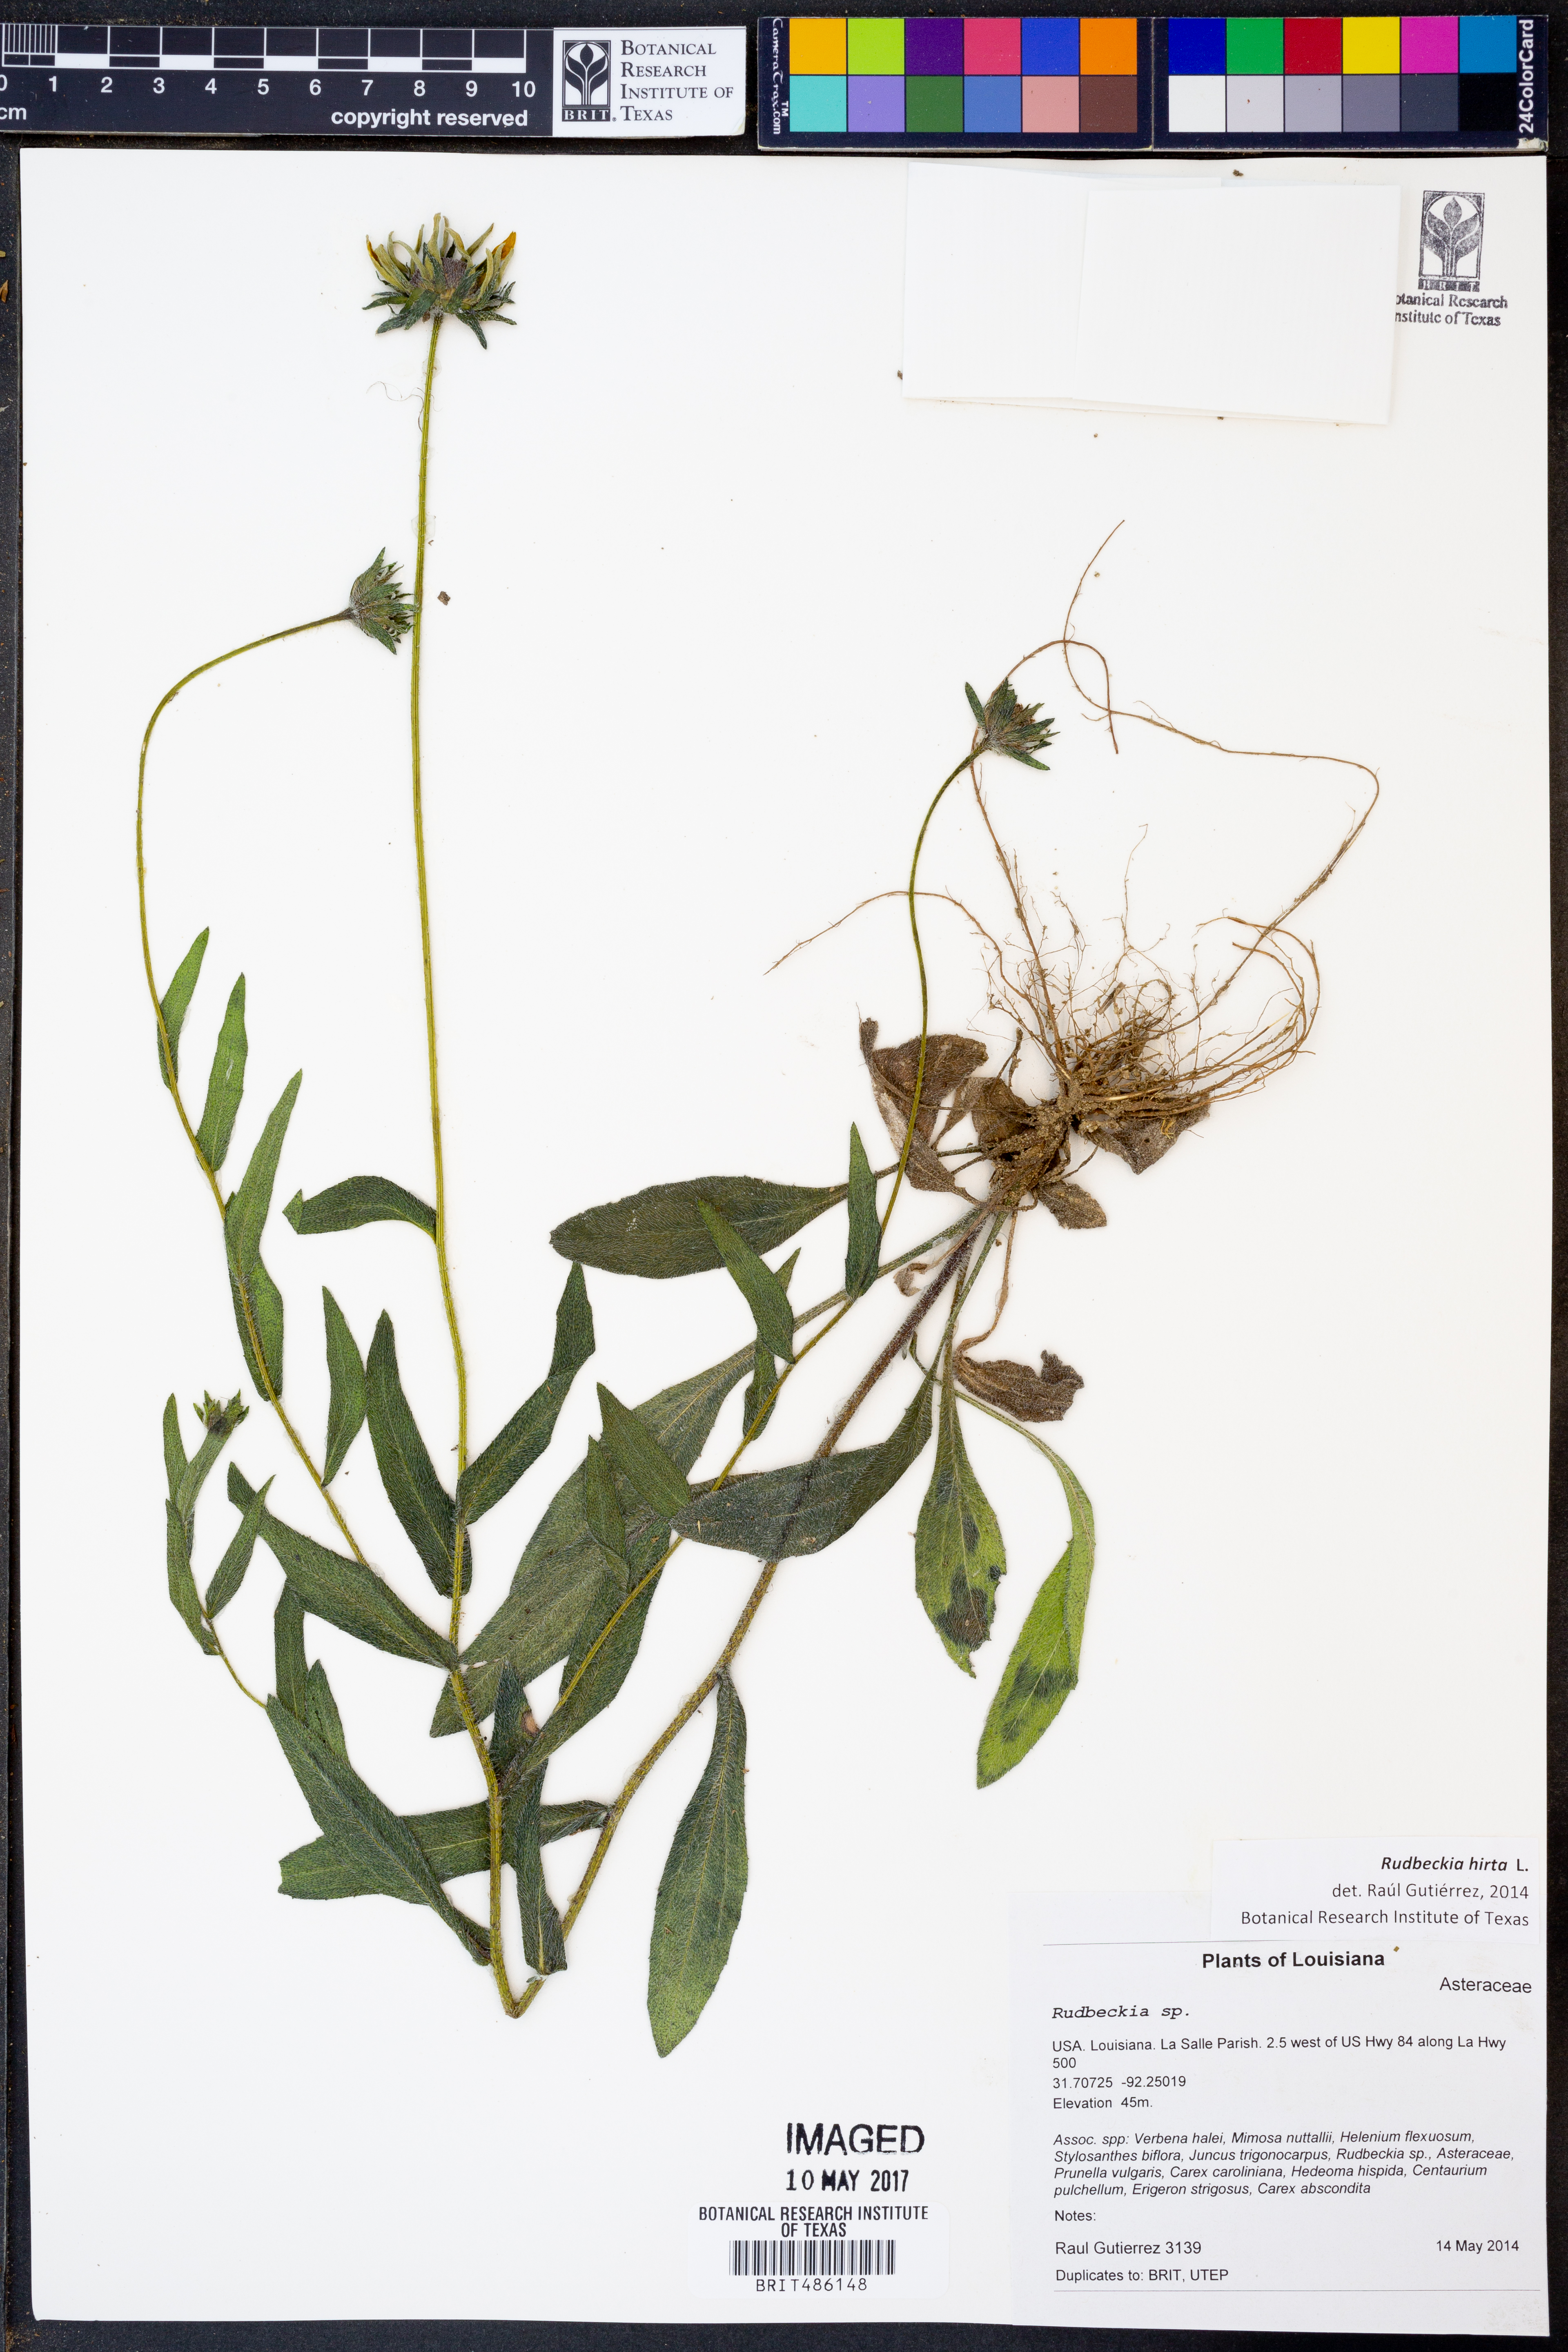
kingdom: Plantae
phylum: Tracheophyta
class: Magnoliopsida
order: Asterales
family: Asteraceae
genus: Rudbeckia
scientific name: Rudbeckia hirta
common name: Black-eyed-susan
